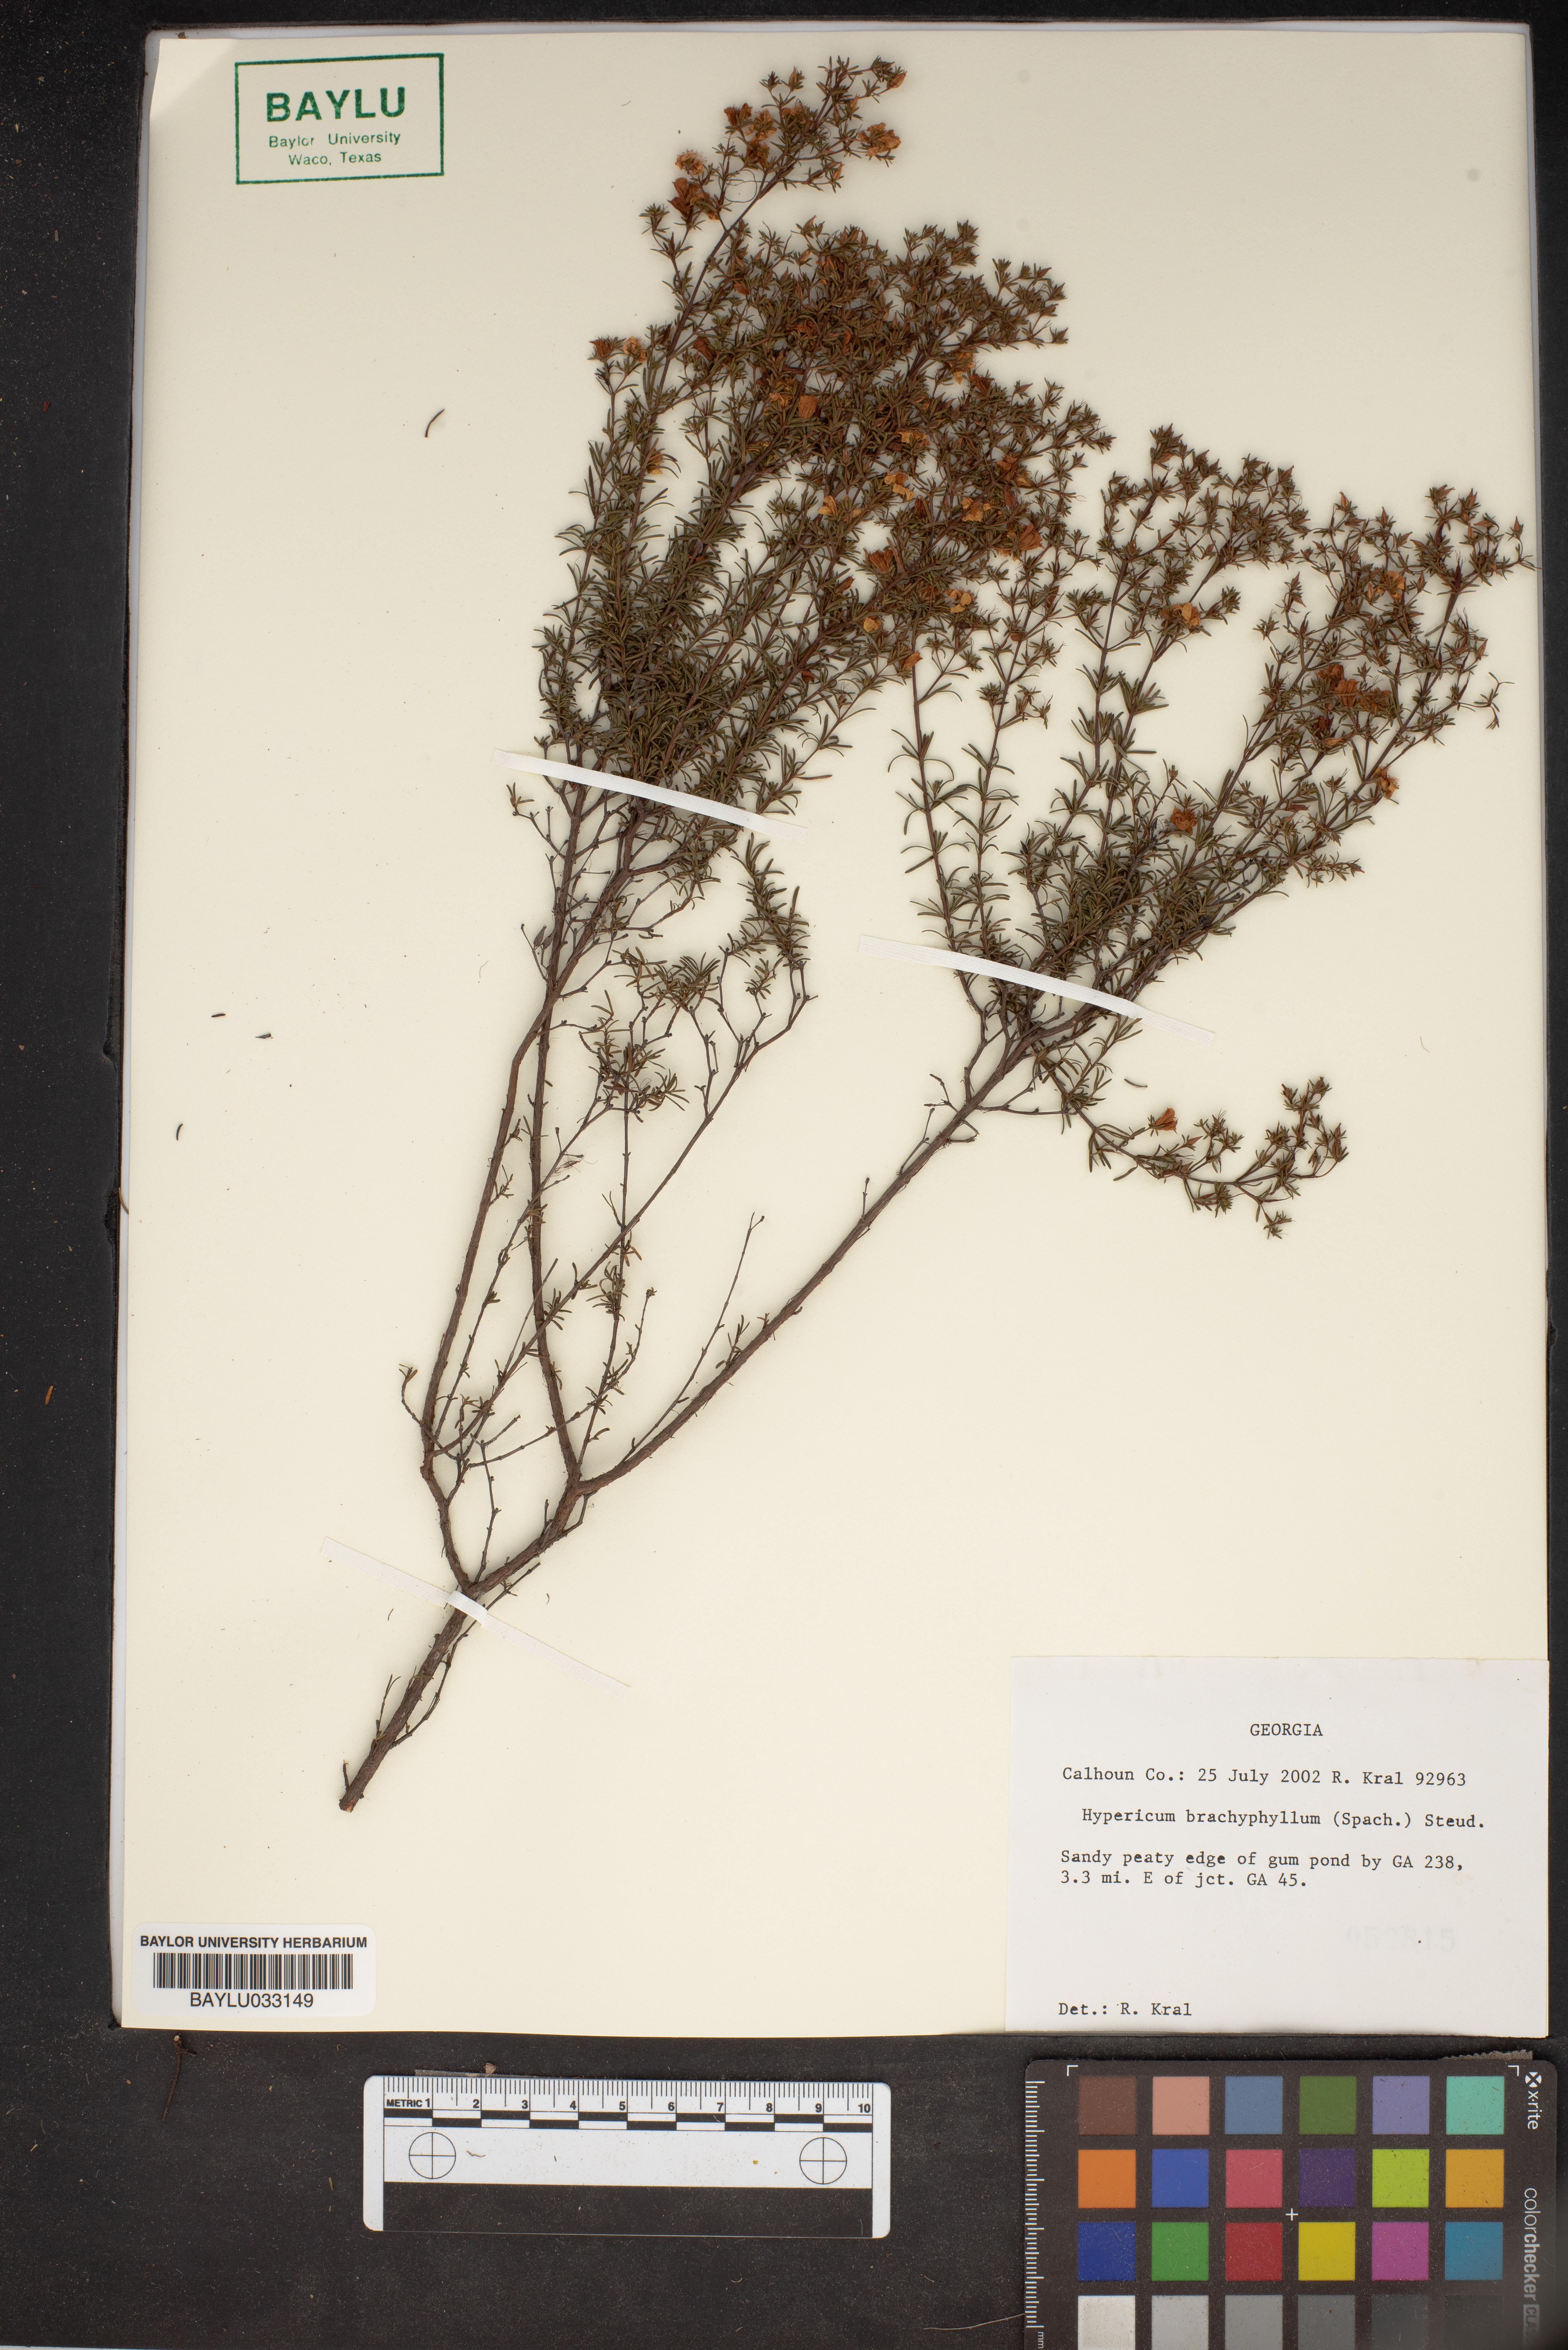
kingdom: Plantae
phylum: Tracheophyta
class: Magnoliopsida
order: Malpighiales
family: Hypericaceae
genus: Hypericum
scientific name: Hypericum brachyphyllum
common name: Coastal plain st. john's-wort
